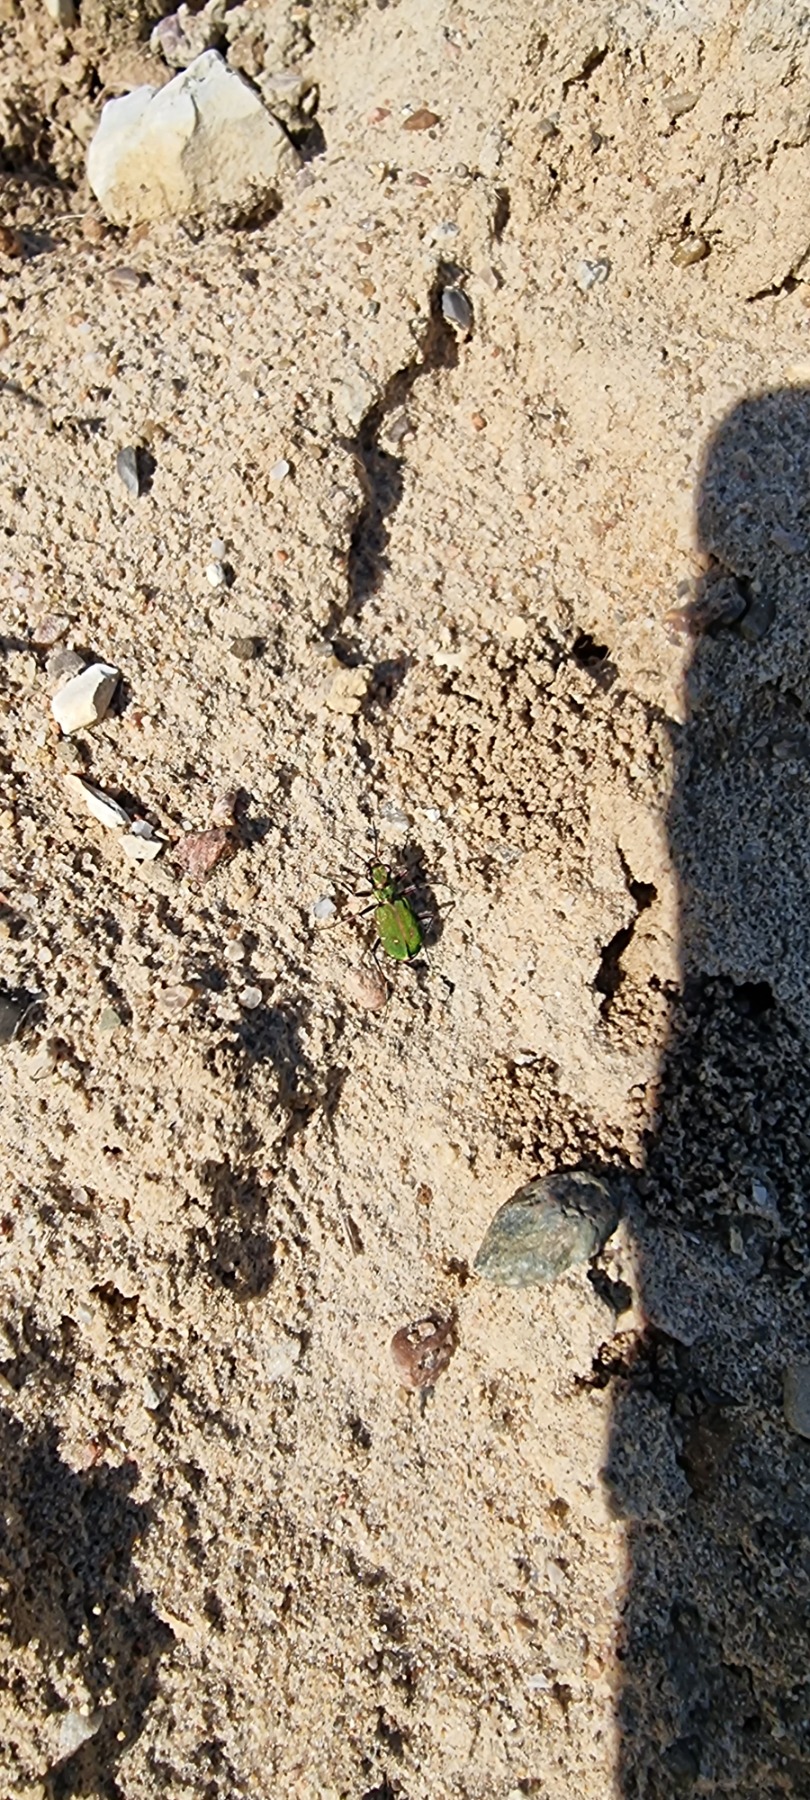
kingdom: Animalia
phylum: Arthropoda
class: Insecta
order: Coleoptera
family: Carabidae
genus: Cicindela
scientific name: Cicindela campestris
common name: Grøn sandspringer
